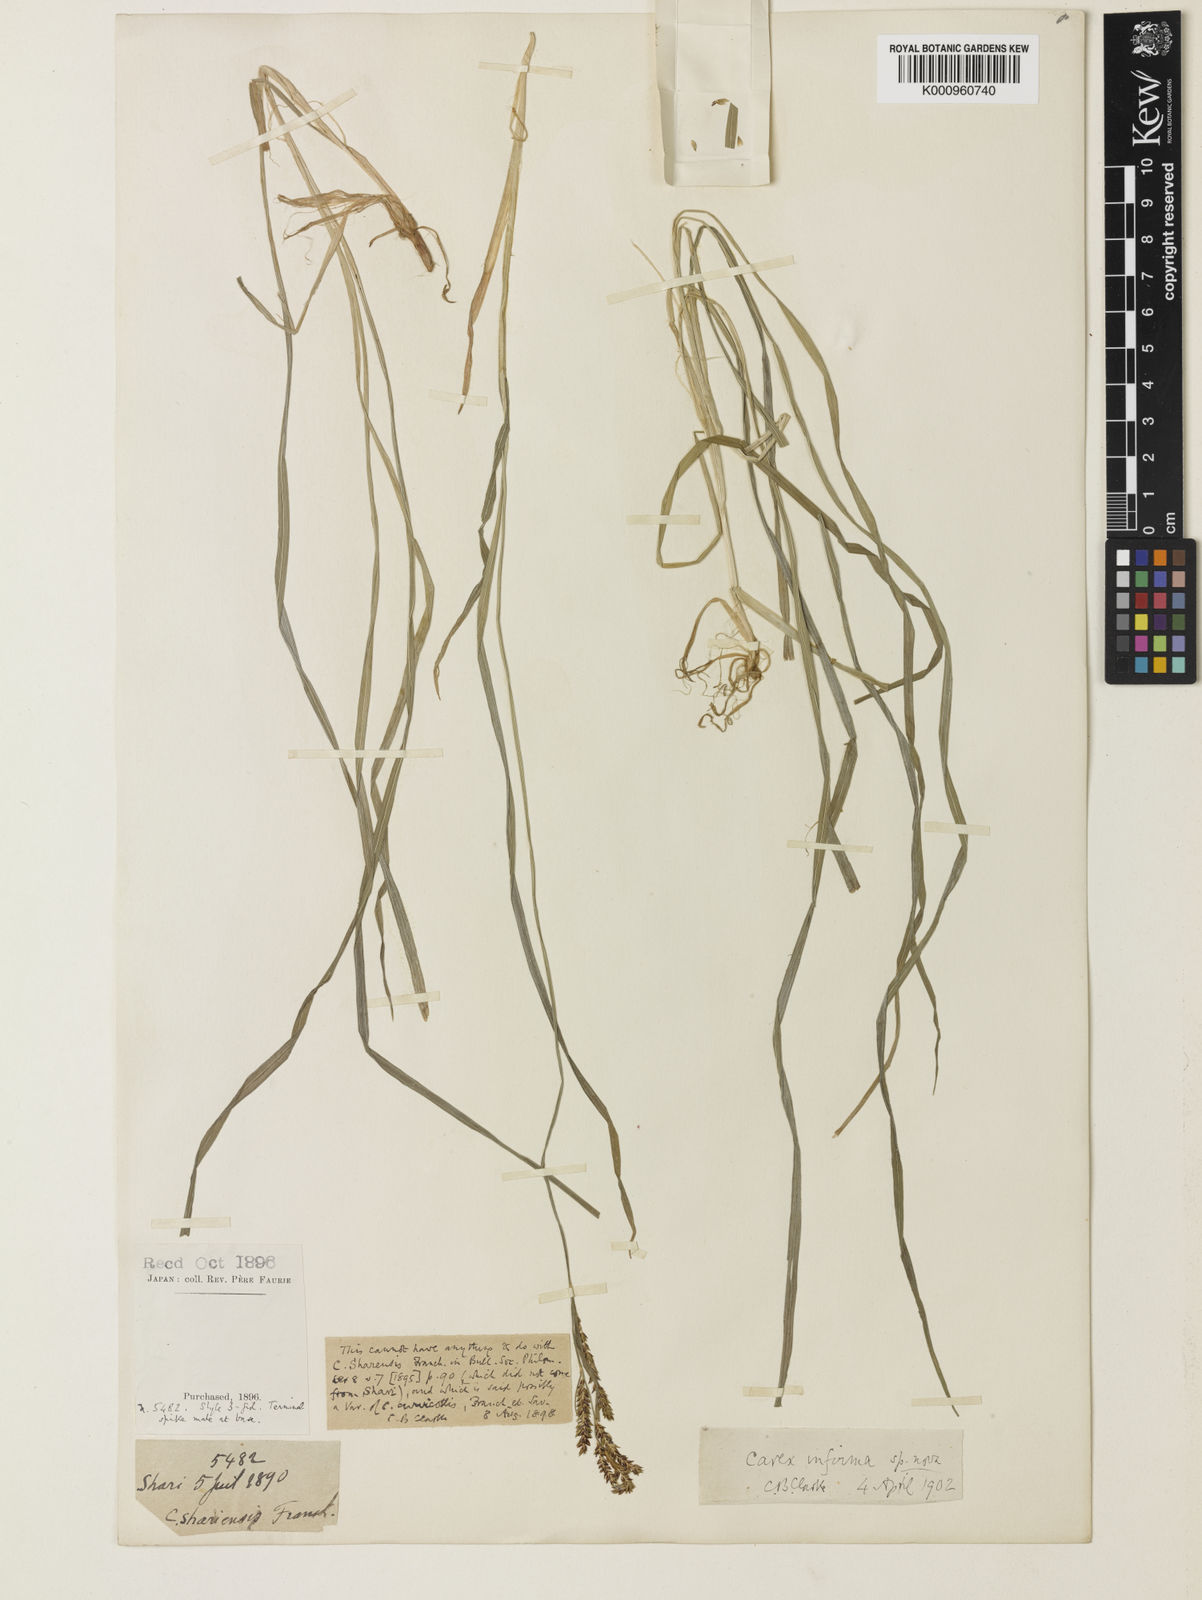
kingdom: Plantae
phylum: Tracheophyta
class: Liliopsida
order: Poales
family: Cyperaceae
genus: Carex
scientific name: Carex augustinowiczii
